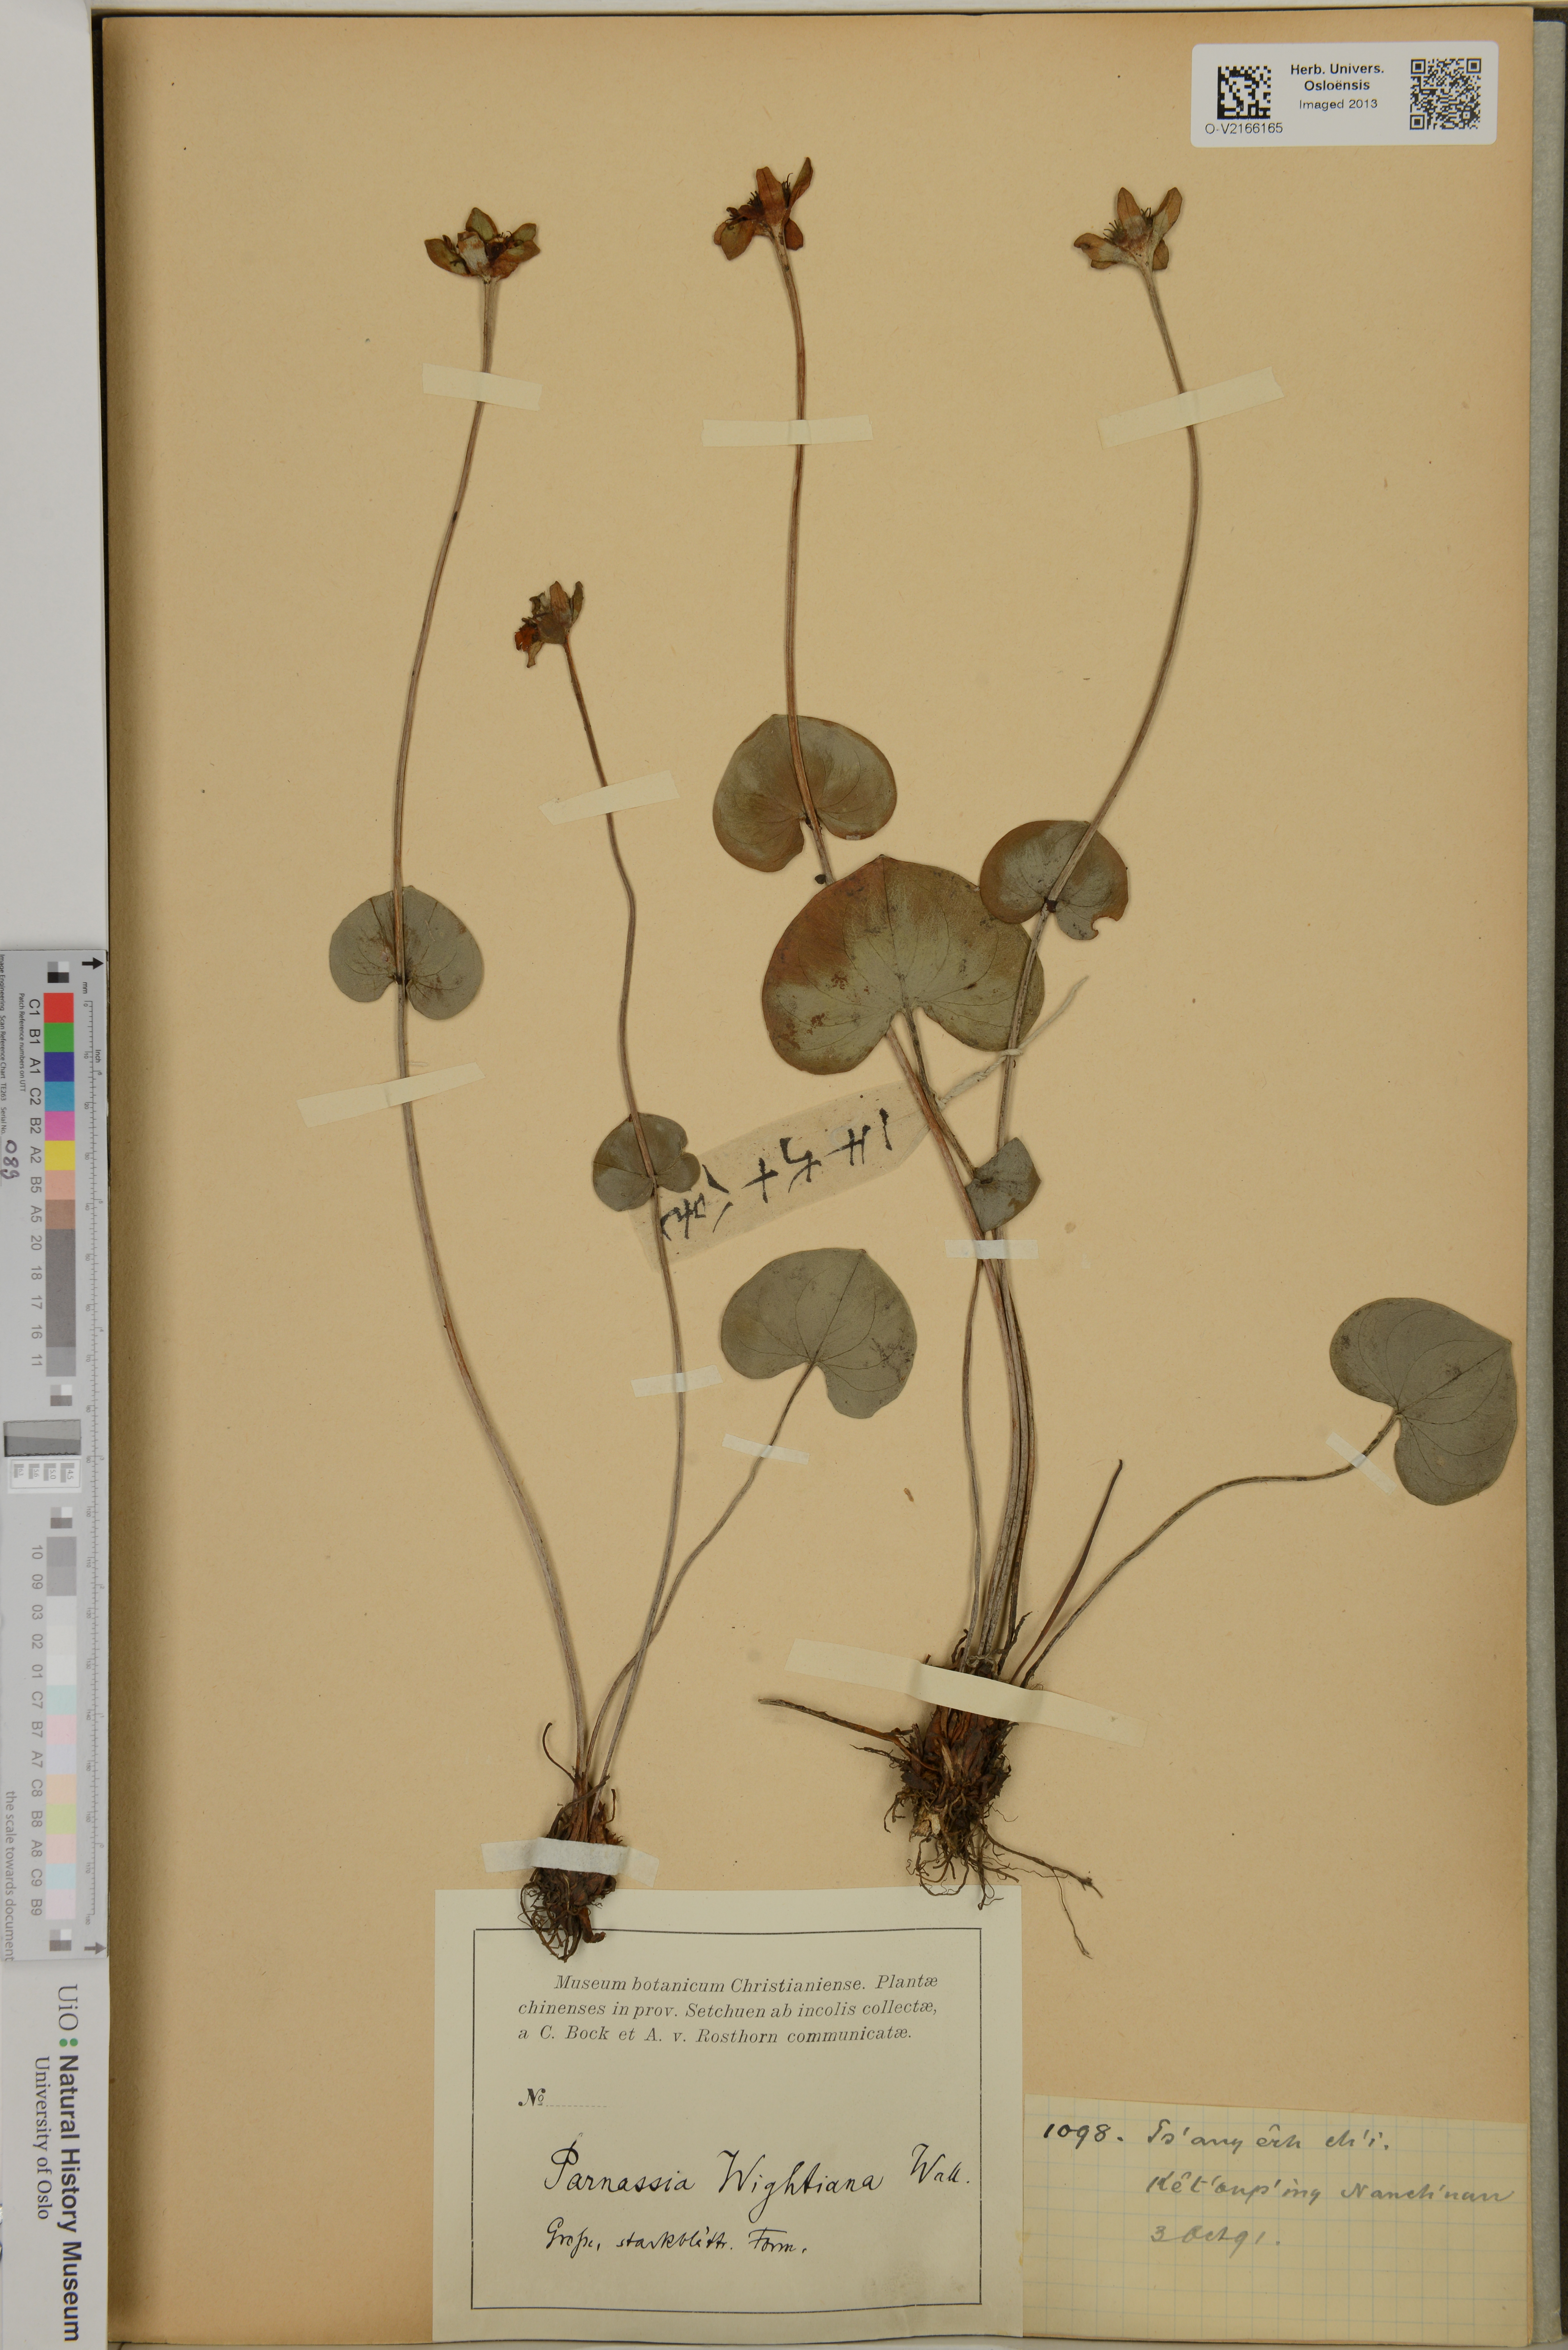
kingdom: Plantae
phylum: Tracheophyta
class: Magnoliopsida
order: Celastrales
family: Parnassiaceae
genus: Parnassia
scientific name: Parnassia wightiana
